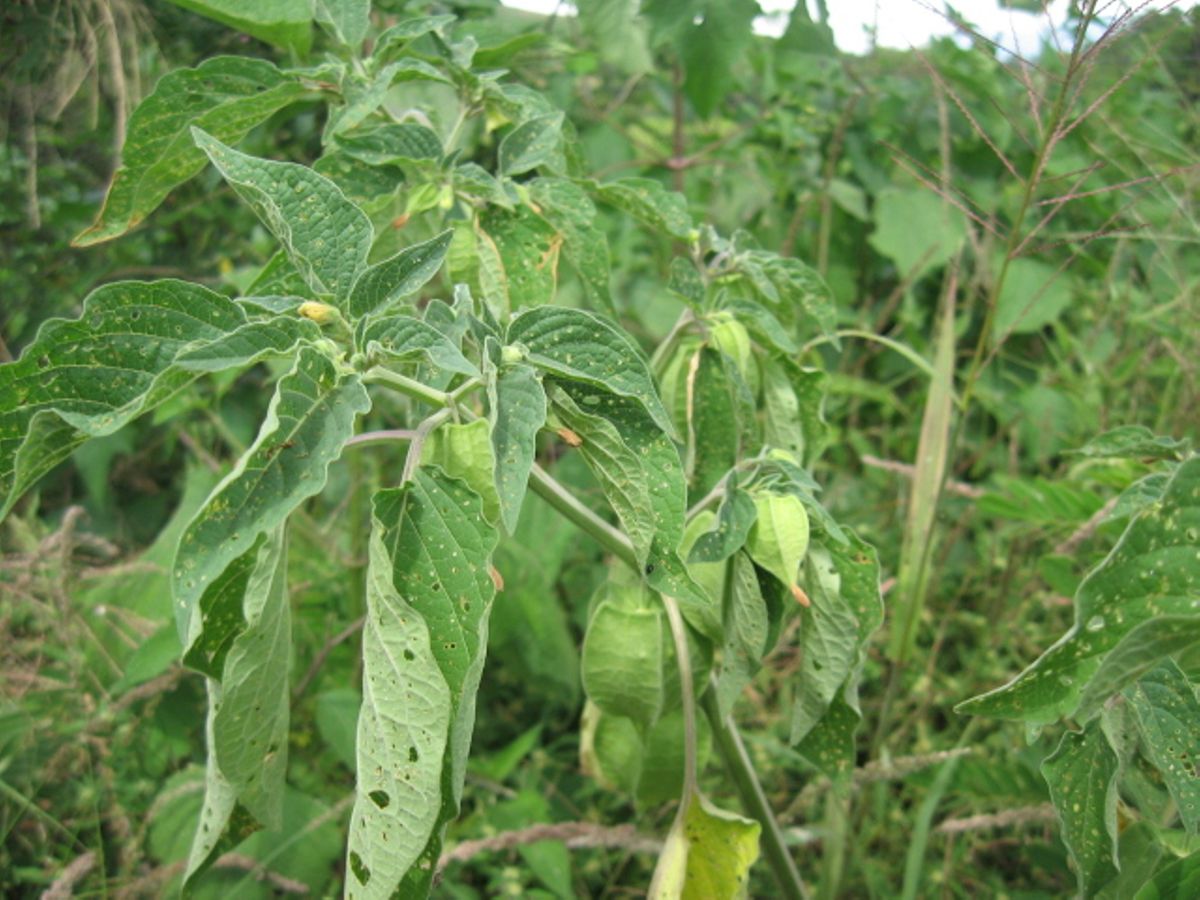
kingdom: Plantae
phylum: Tracheophyta
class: Magnoliopsida
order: Solanales
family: Solanaceae
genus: Physalis
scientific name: Physalis
